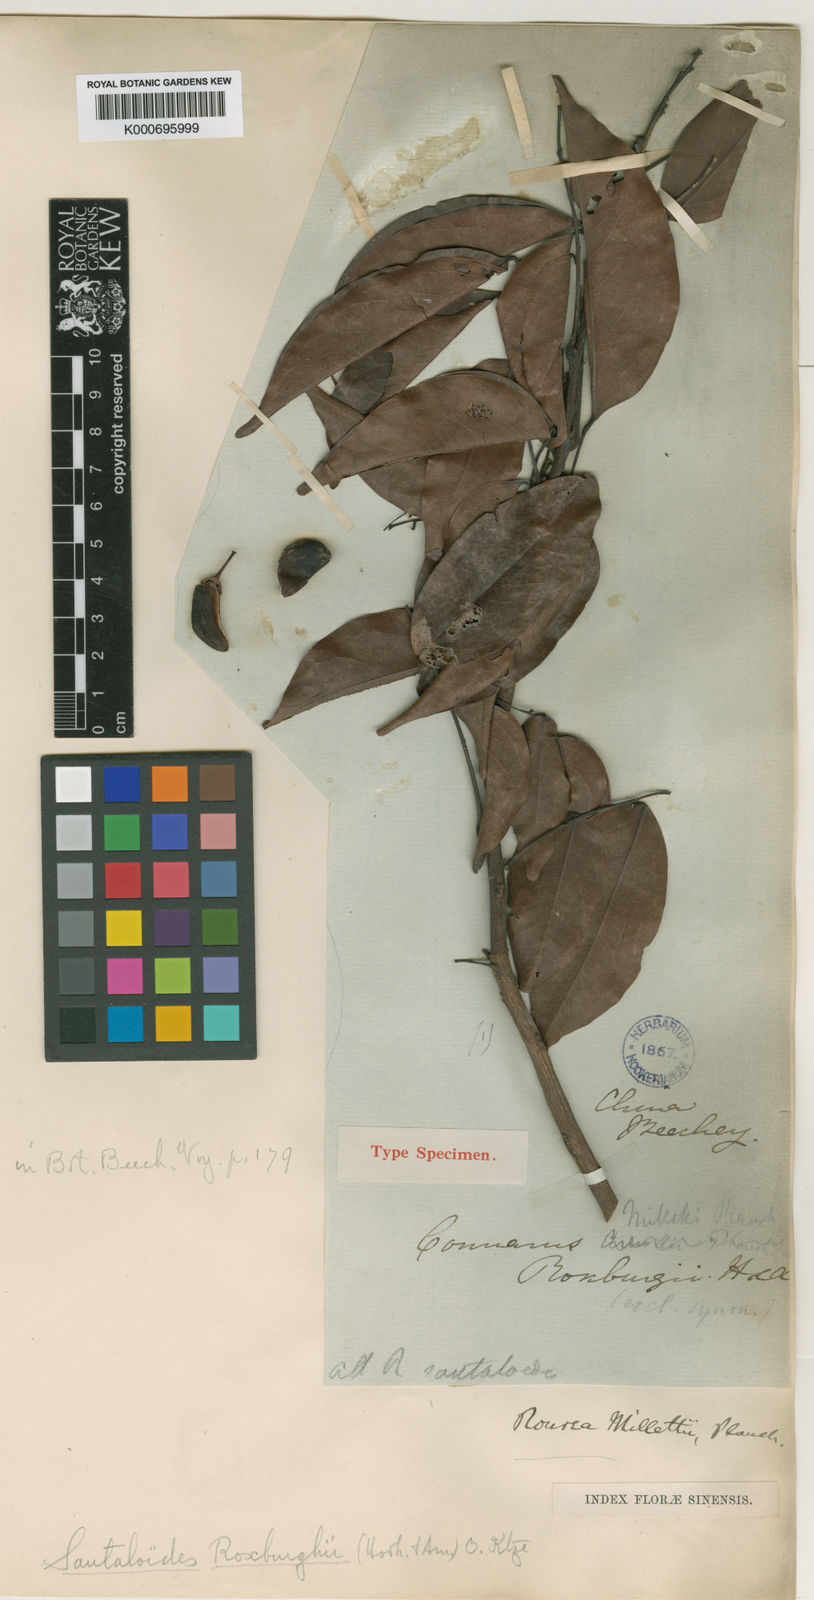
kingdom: Plantae
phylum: Tracheophyta
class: Magnoliopsida
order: Oxalidales
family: Connaraceae
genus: Rourea
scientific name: Rourea minor
